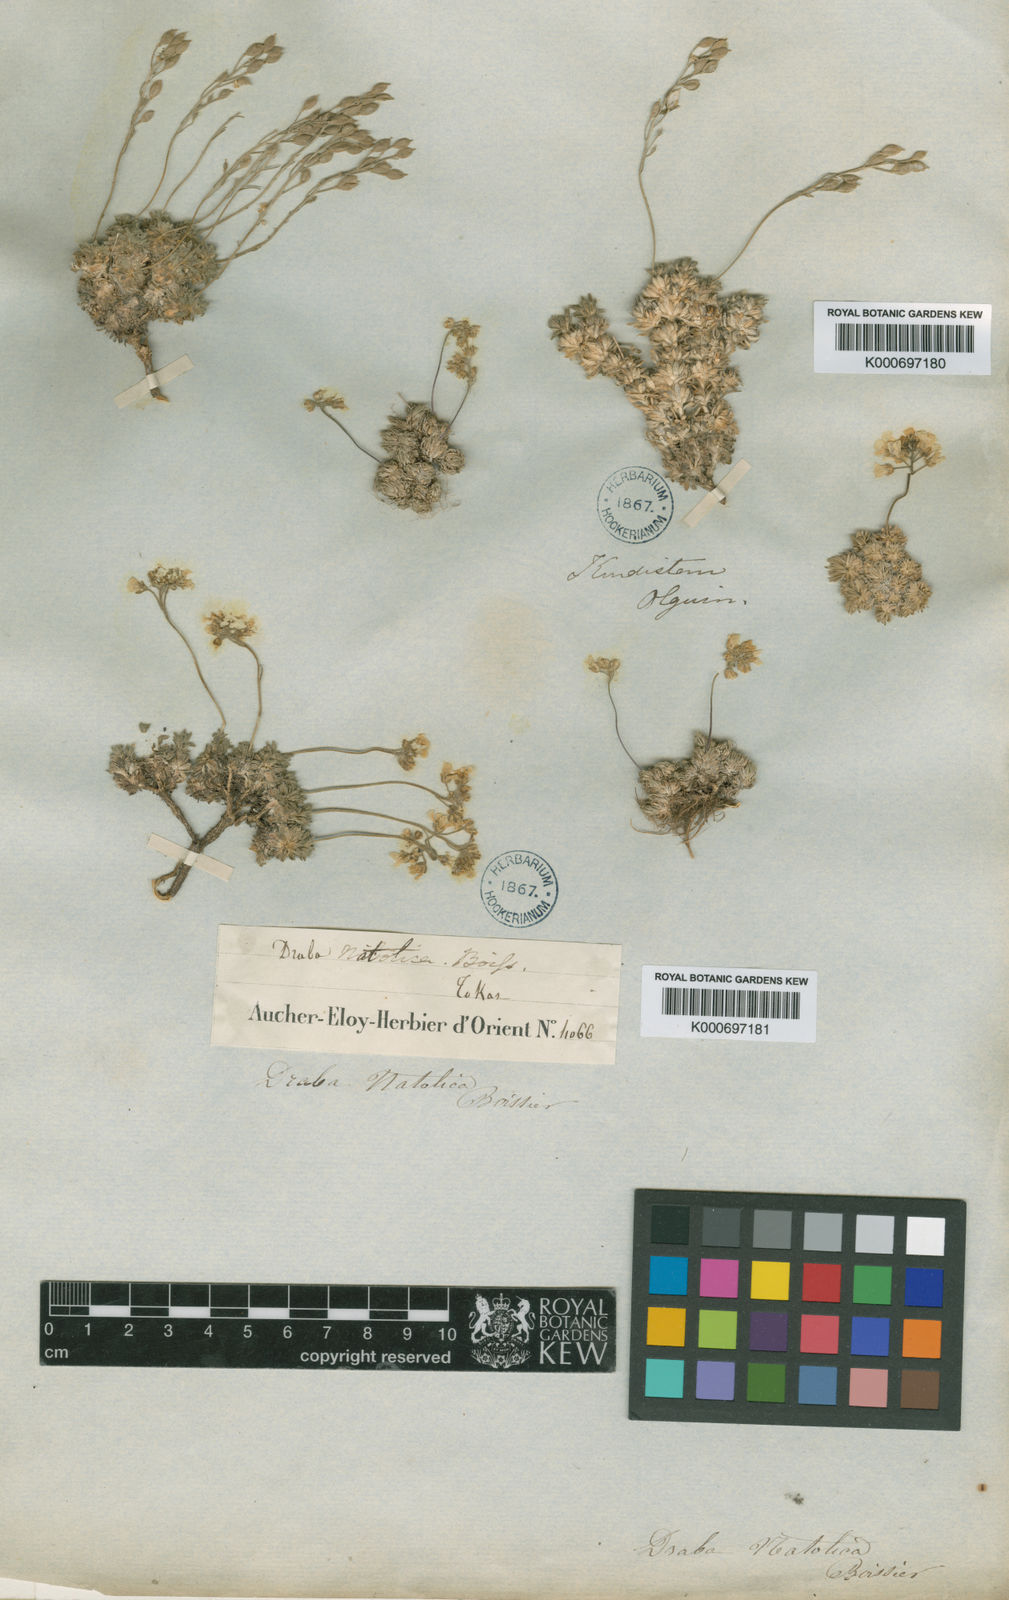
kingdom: Plantae
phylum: Tracheophyta
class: Magnoliopsida
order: Brassicales
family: Brassicaceae
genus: Draba
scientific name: Draba bruniifolia
